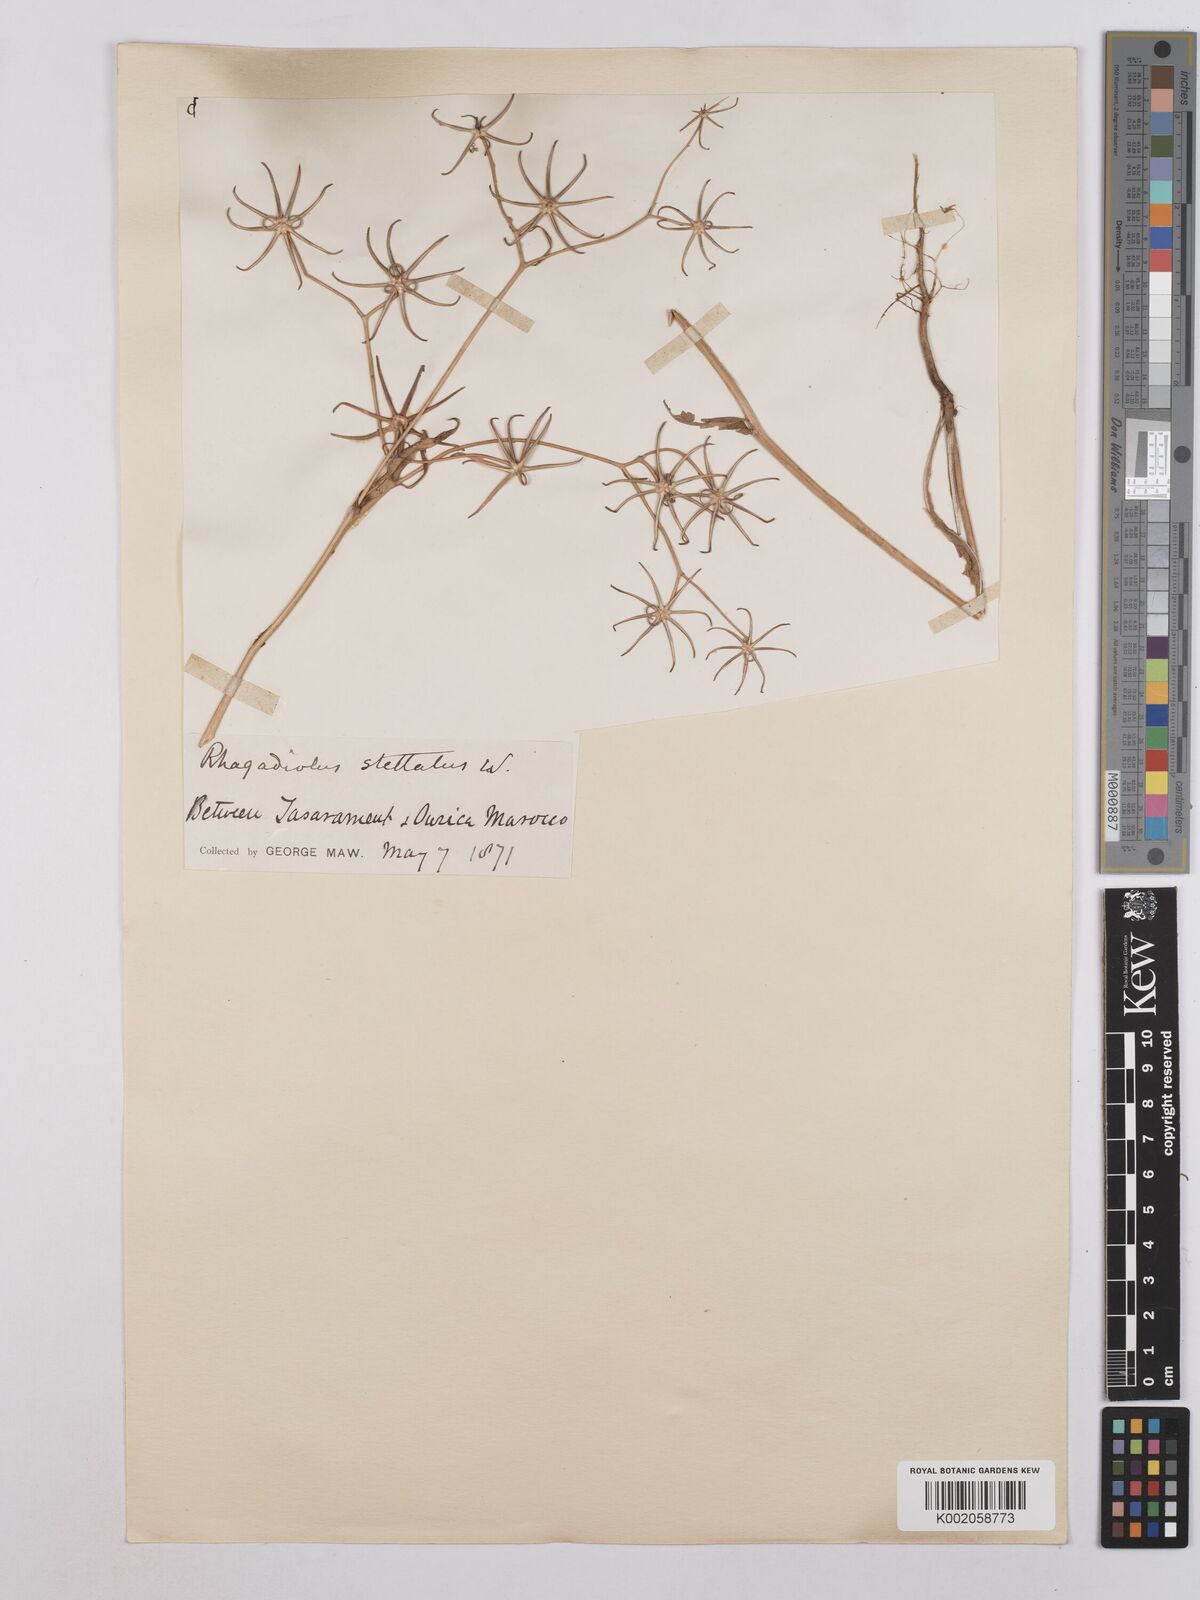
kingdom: Plantae
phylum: Tracheophyta
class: Magnoliopsida
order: Asterales
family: Asteraceae
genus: Rhagadiolus
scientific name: Rhagadiolus stellatus
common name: Star hawkbit
